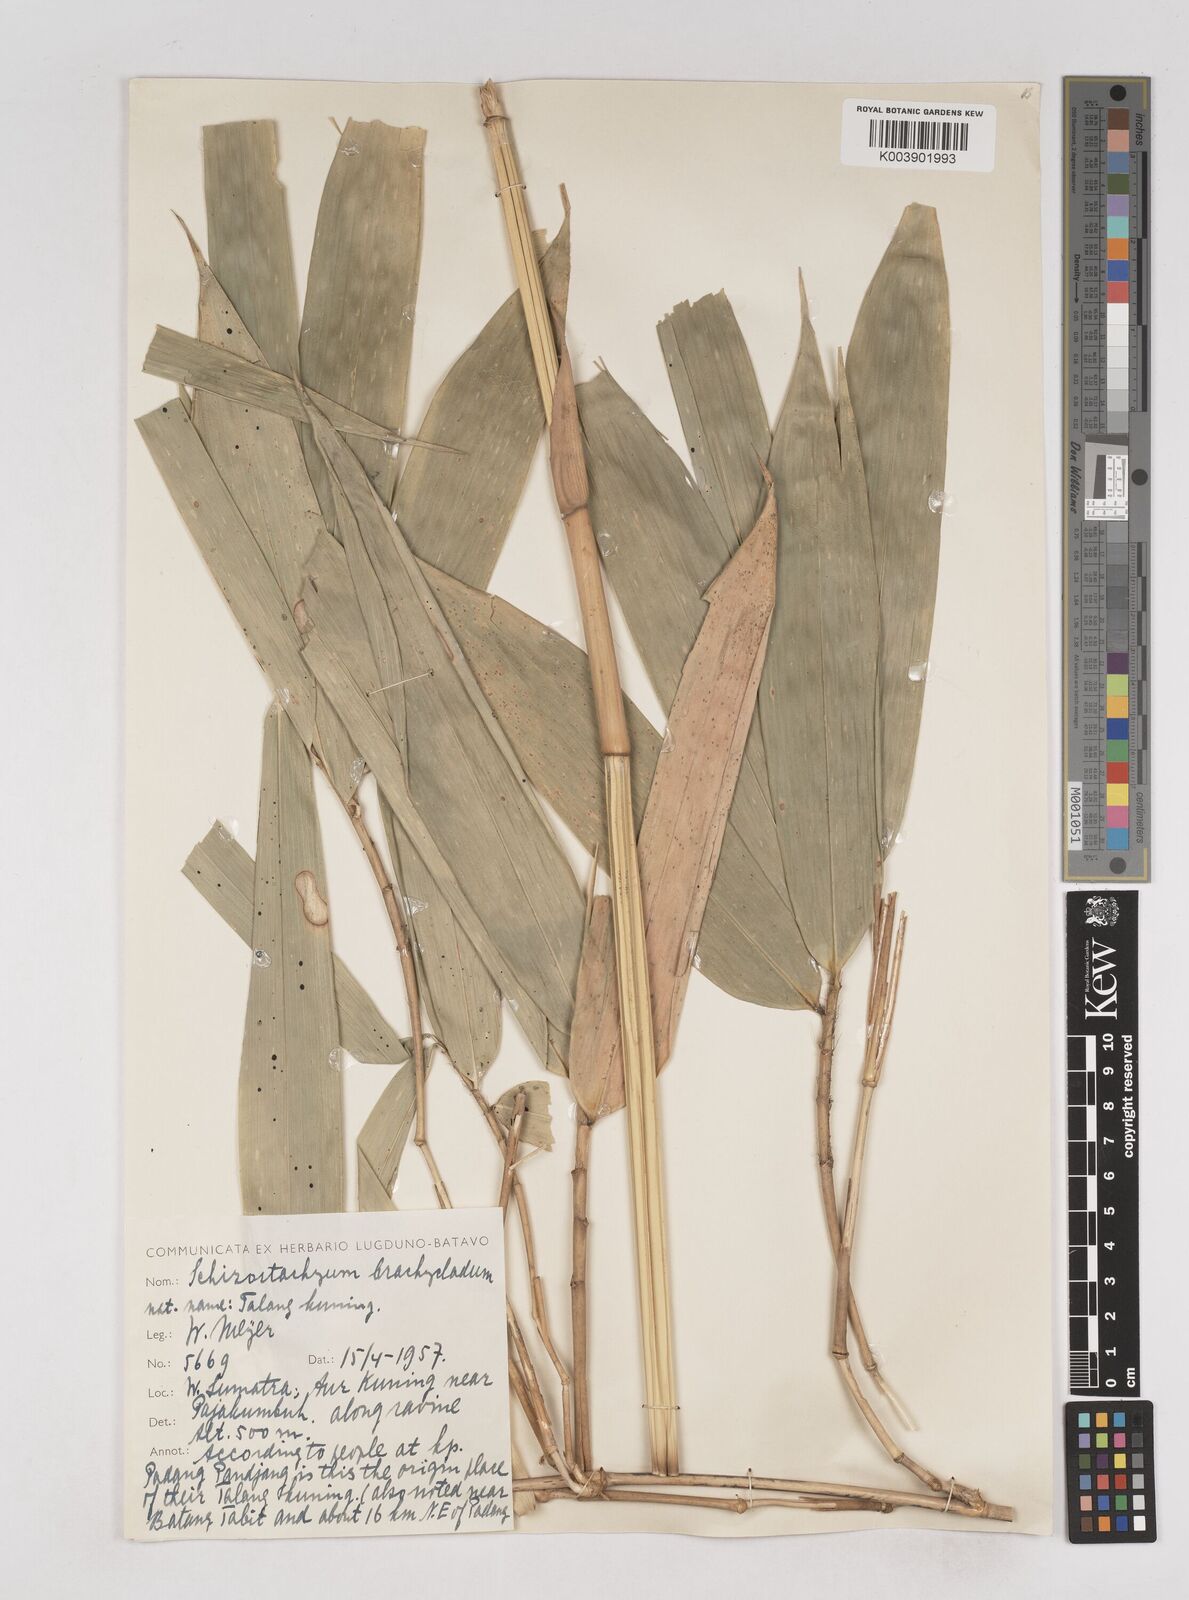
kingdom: Plantae
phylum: Tracheophyta
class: Liliopsida
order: Poales
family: Poaceae
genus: Schizostachyum
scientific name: Schizostachyum brachycladum
